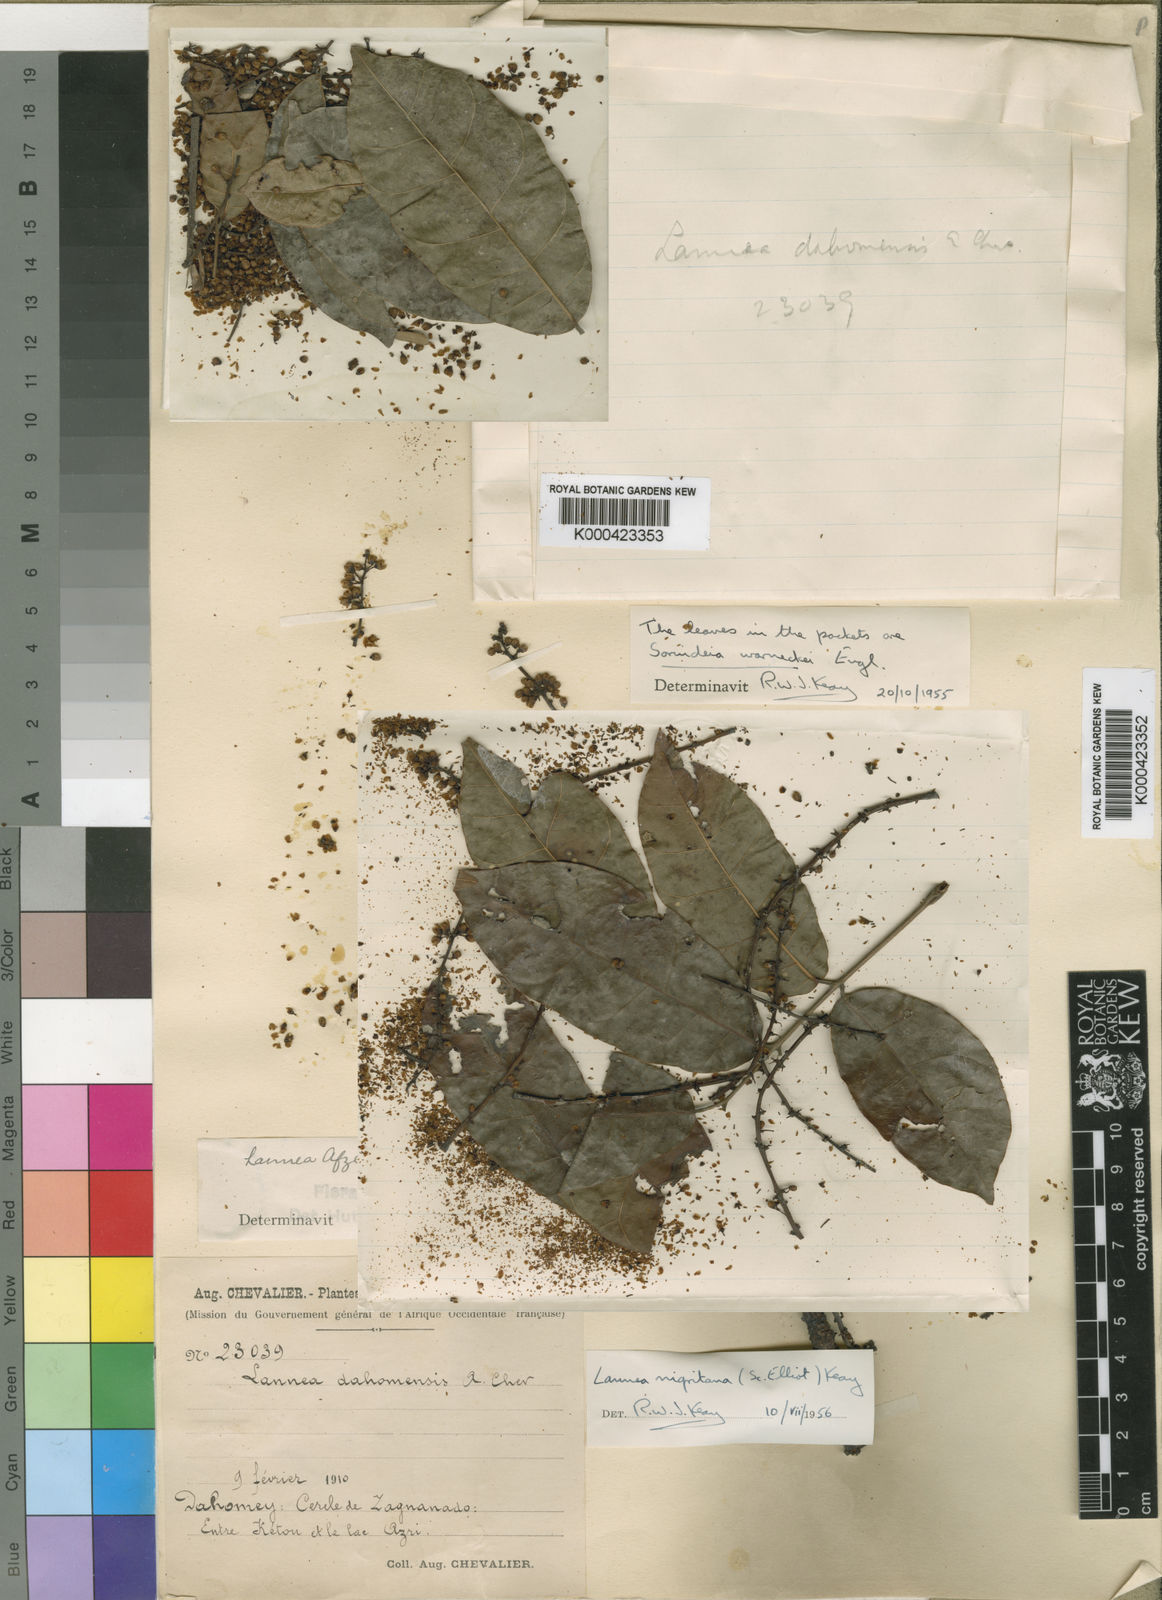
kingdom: Plantae
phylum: Tracheophyta
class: Magnoliopsida
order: Sapindales
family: Anacardiaceae
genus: Sorindeia
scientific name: Sorindeia grandifolia
